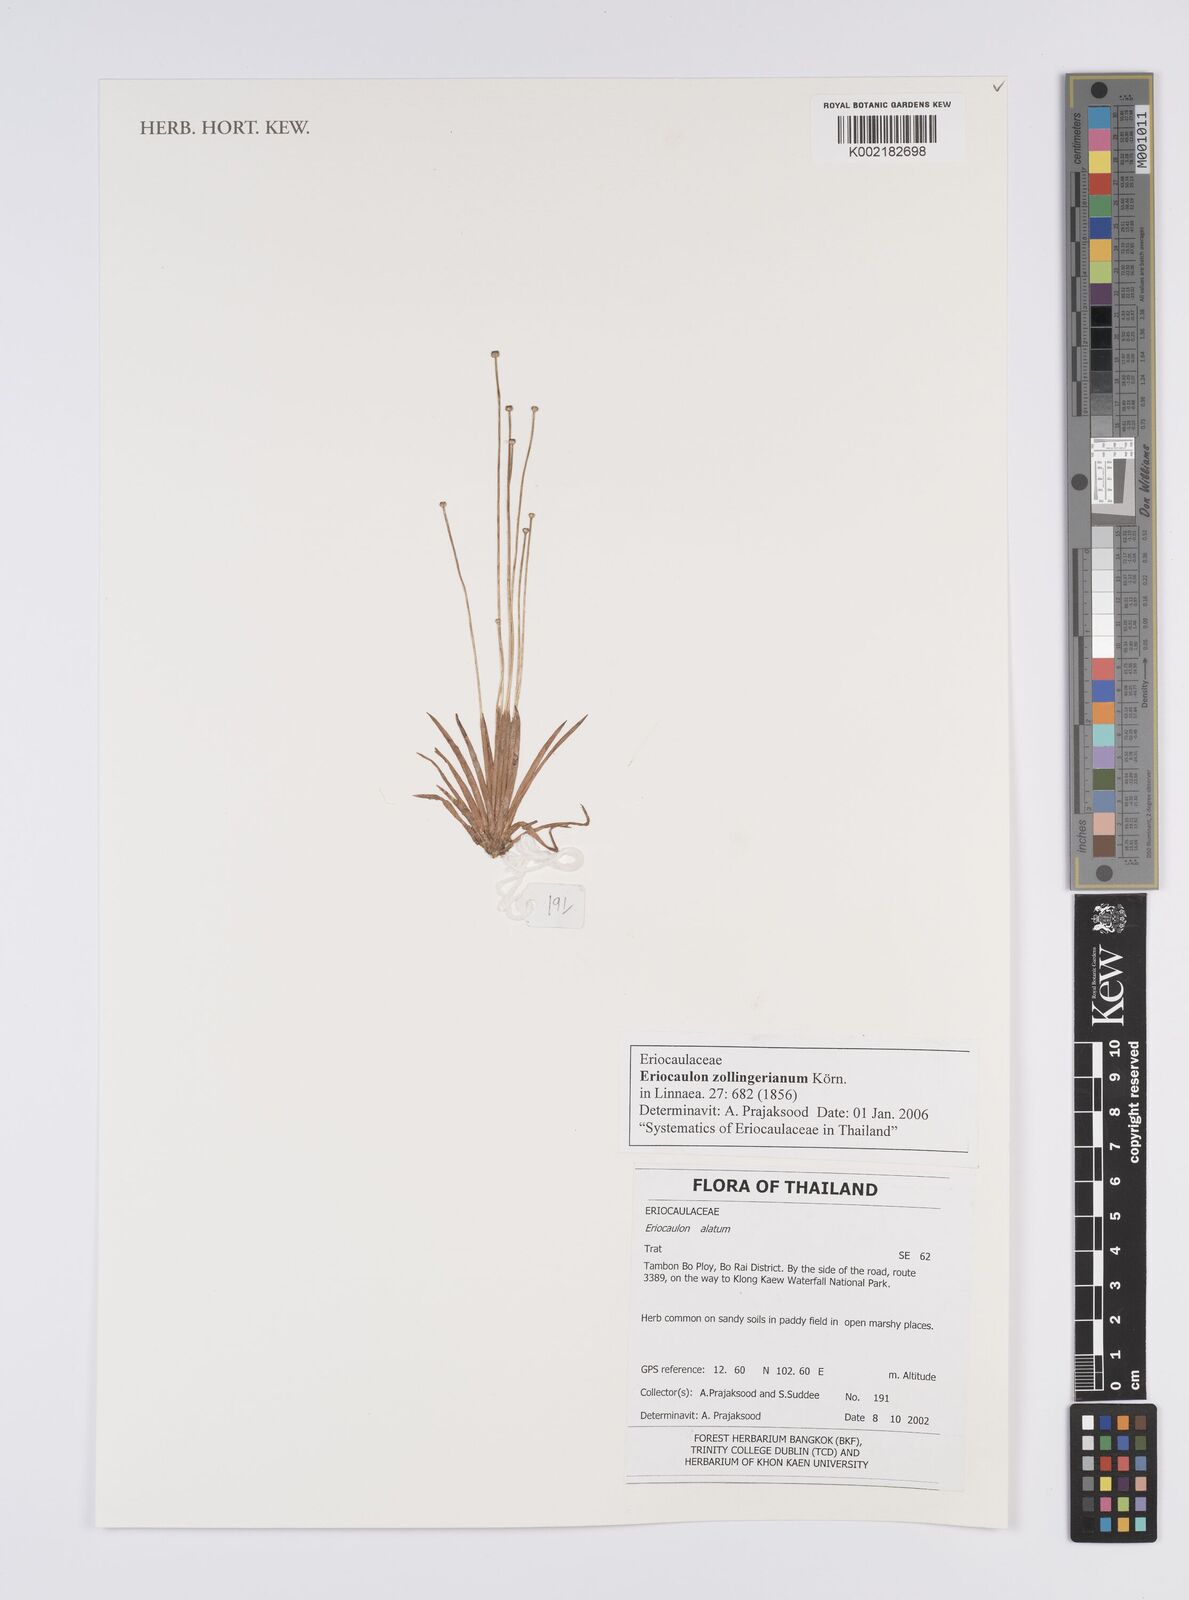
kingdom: Plantae
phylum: Tracheophyta
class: Liliopsida
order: Poales
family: Eriocaulaceae
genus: Eriocaulon
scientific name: Eriocaulon zollingerianum
